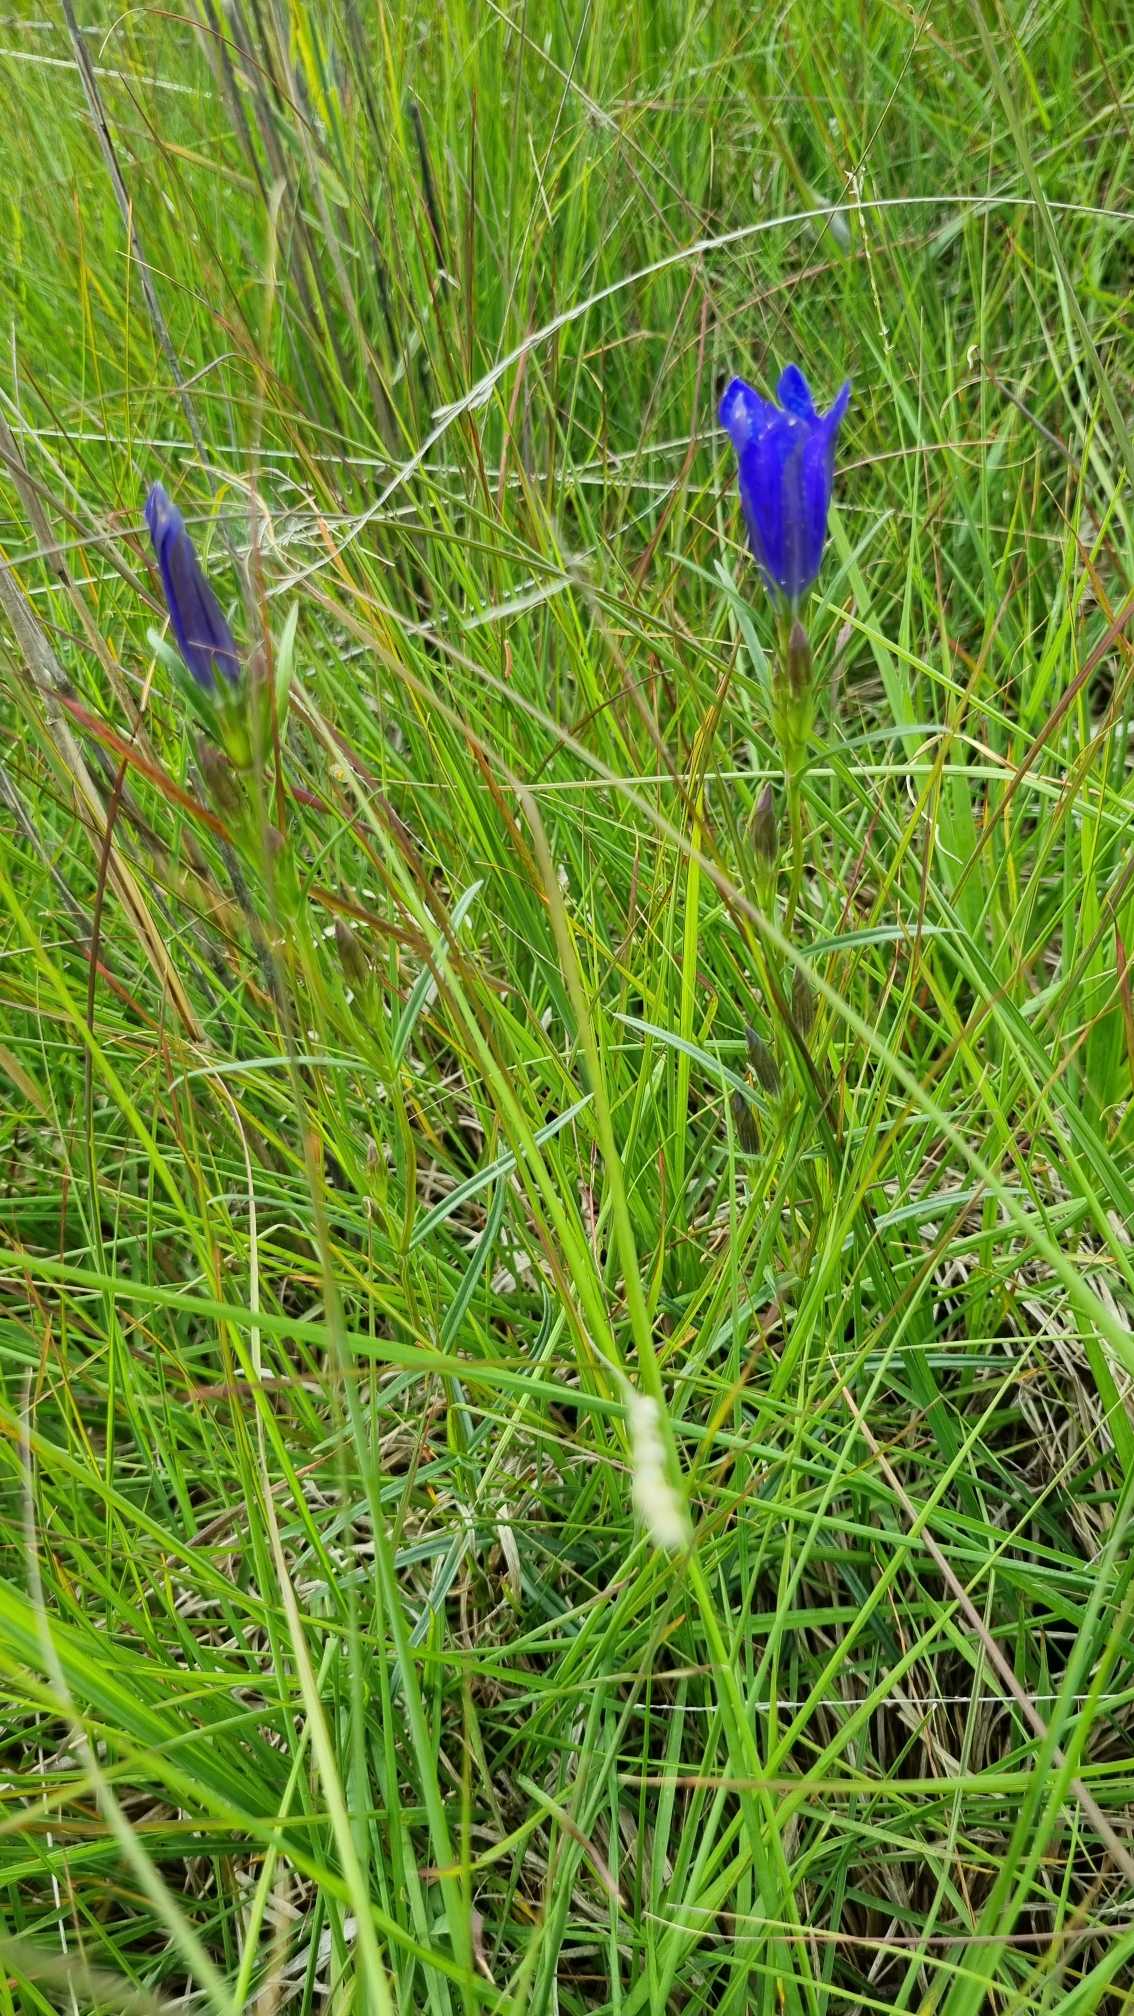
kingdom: Plantae
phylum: Tracheophyta
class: Magnoliopsida
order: Gentianales
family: Gentianaceae
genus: Gentiana
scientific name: Gentiana pneumonanthe
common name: Klokke-ensian
